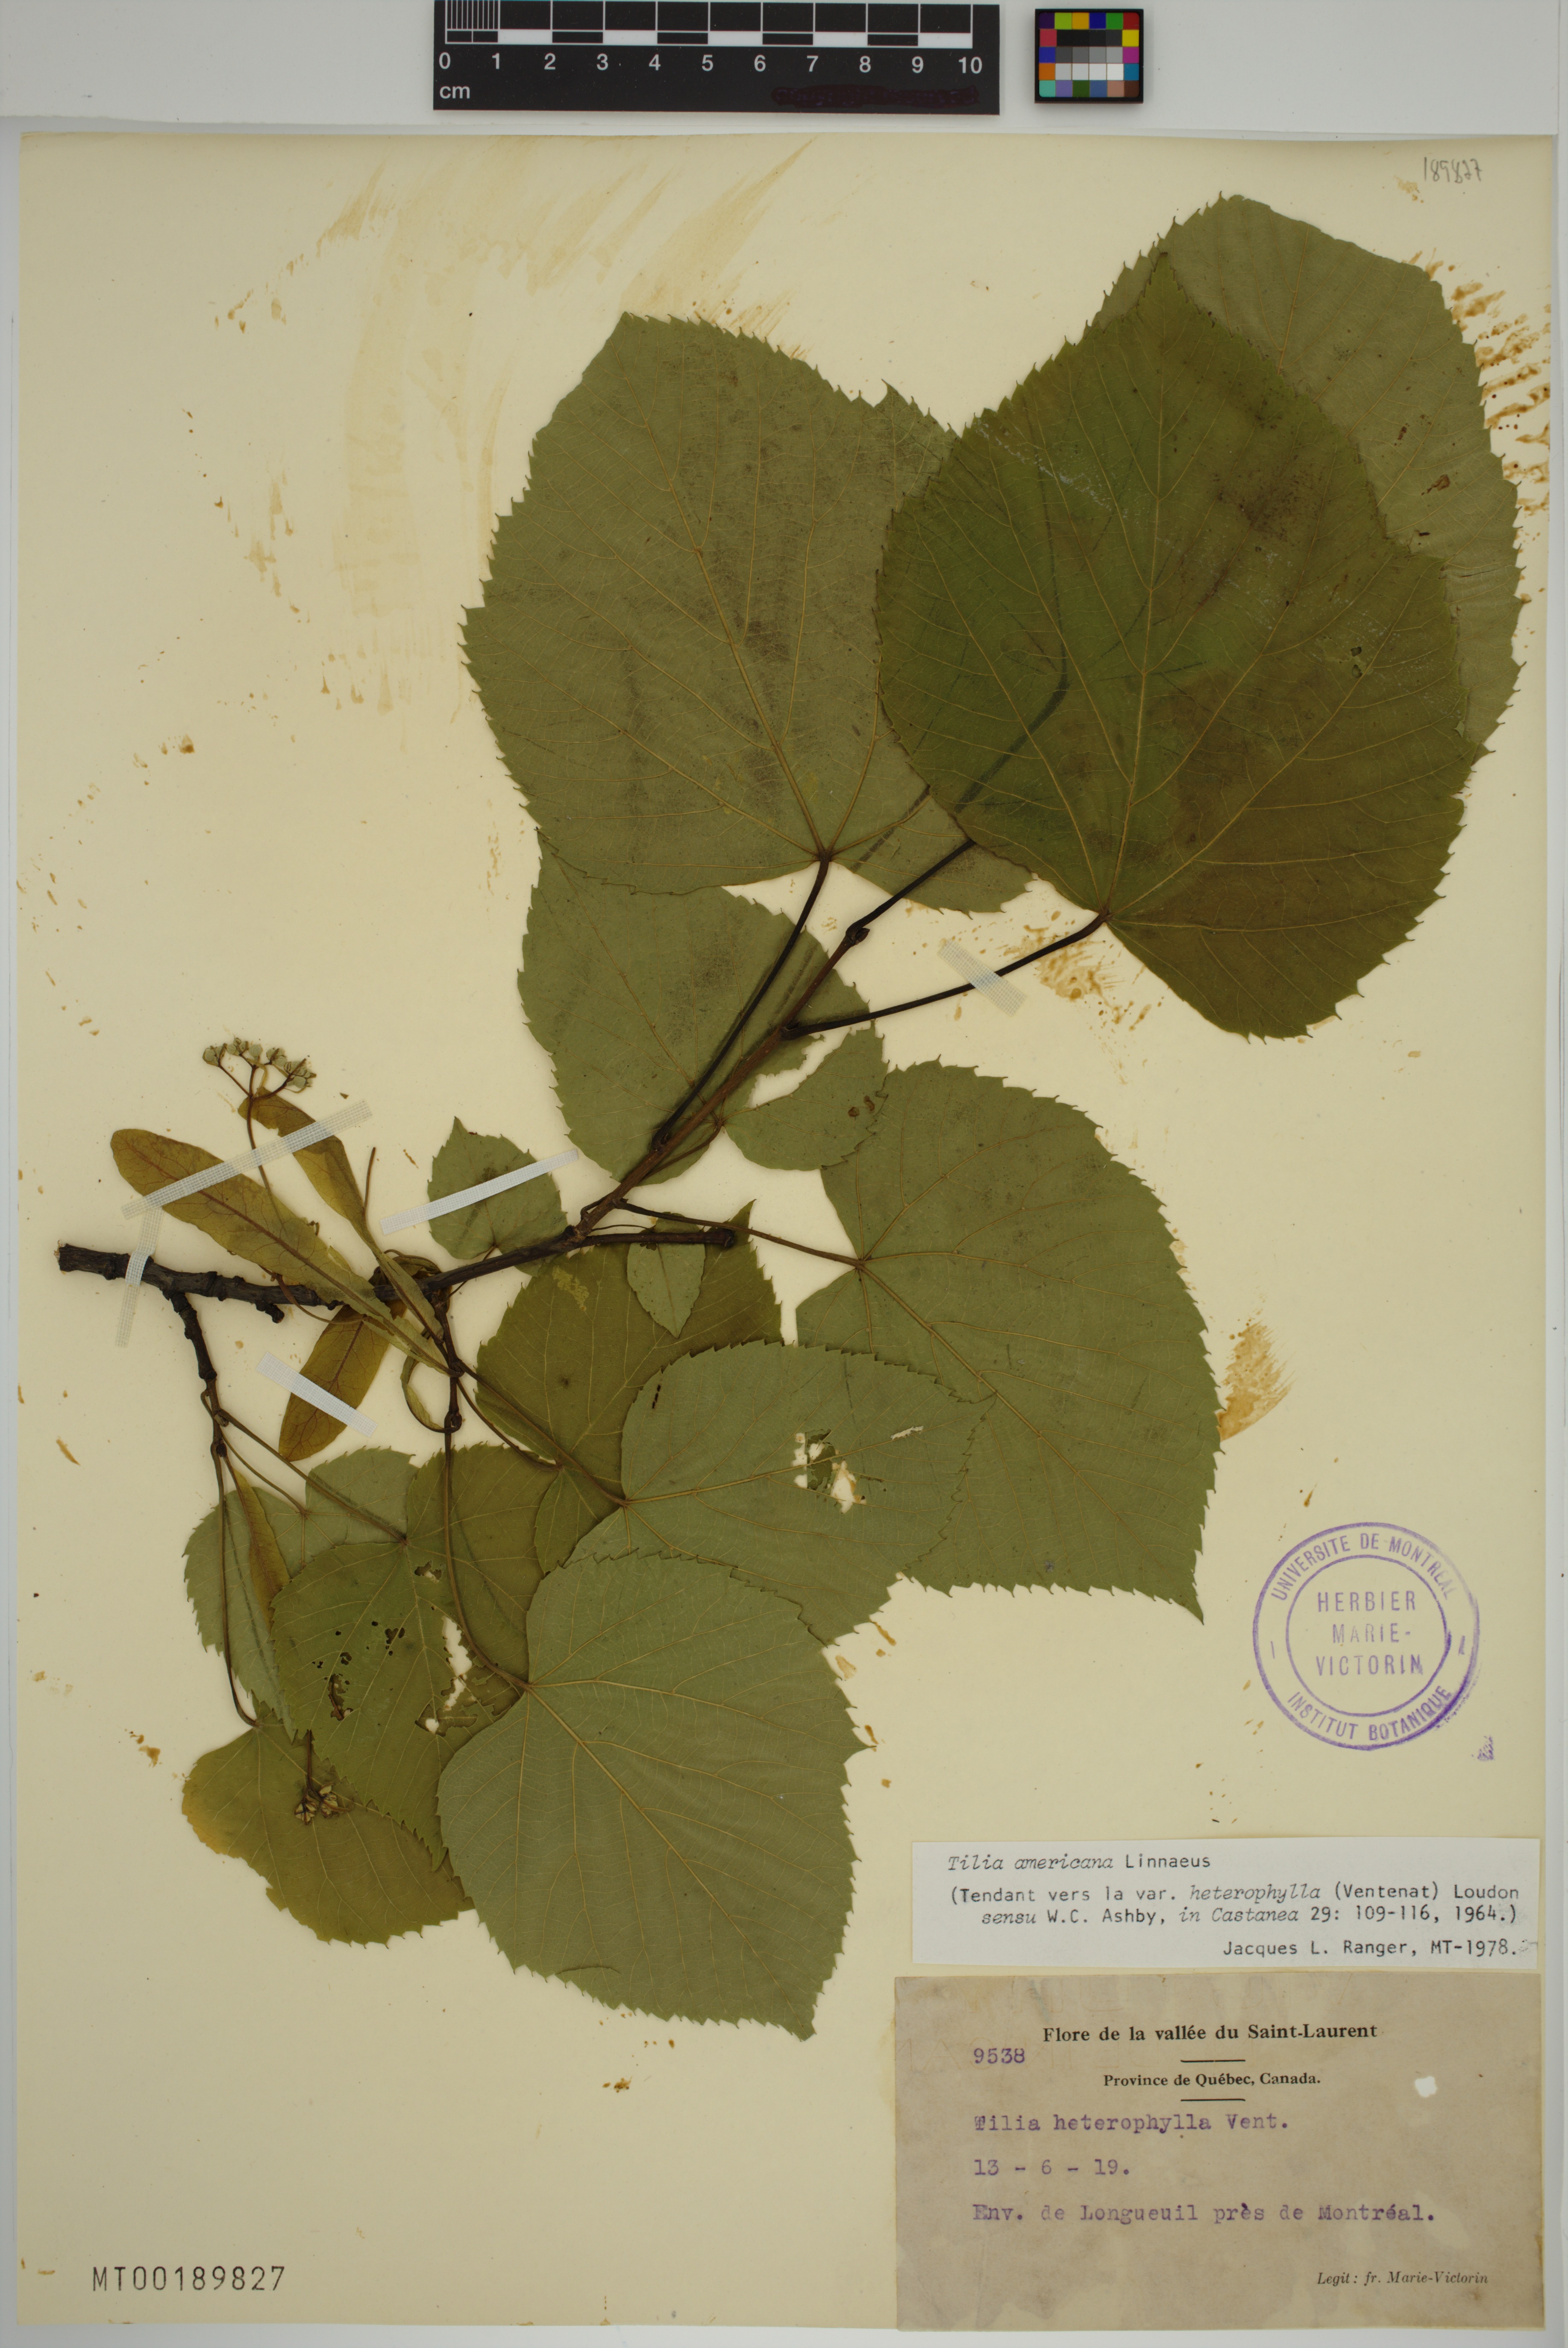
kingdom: Plantae
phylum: Tracheophyta
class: Magnoliopsida
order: Malvales
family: Malvaceae
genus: Tilia
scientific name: Tilia americana
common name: Basswood
